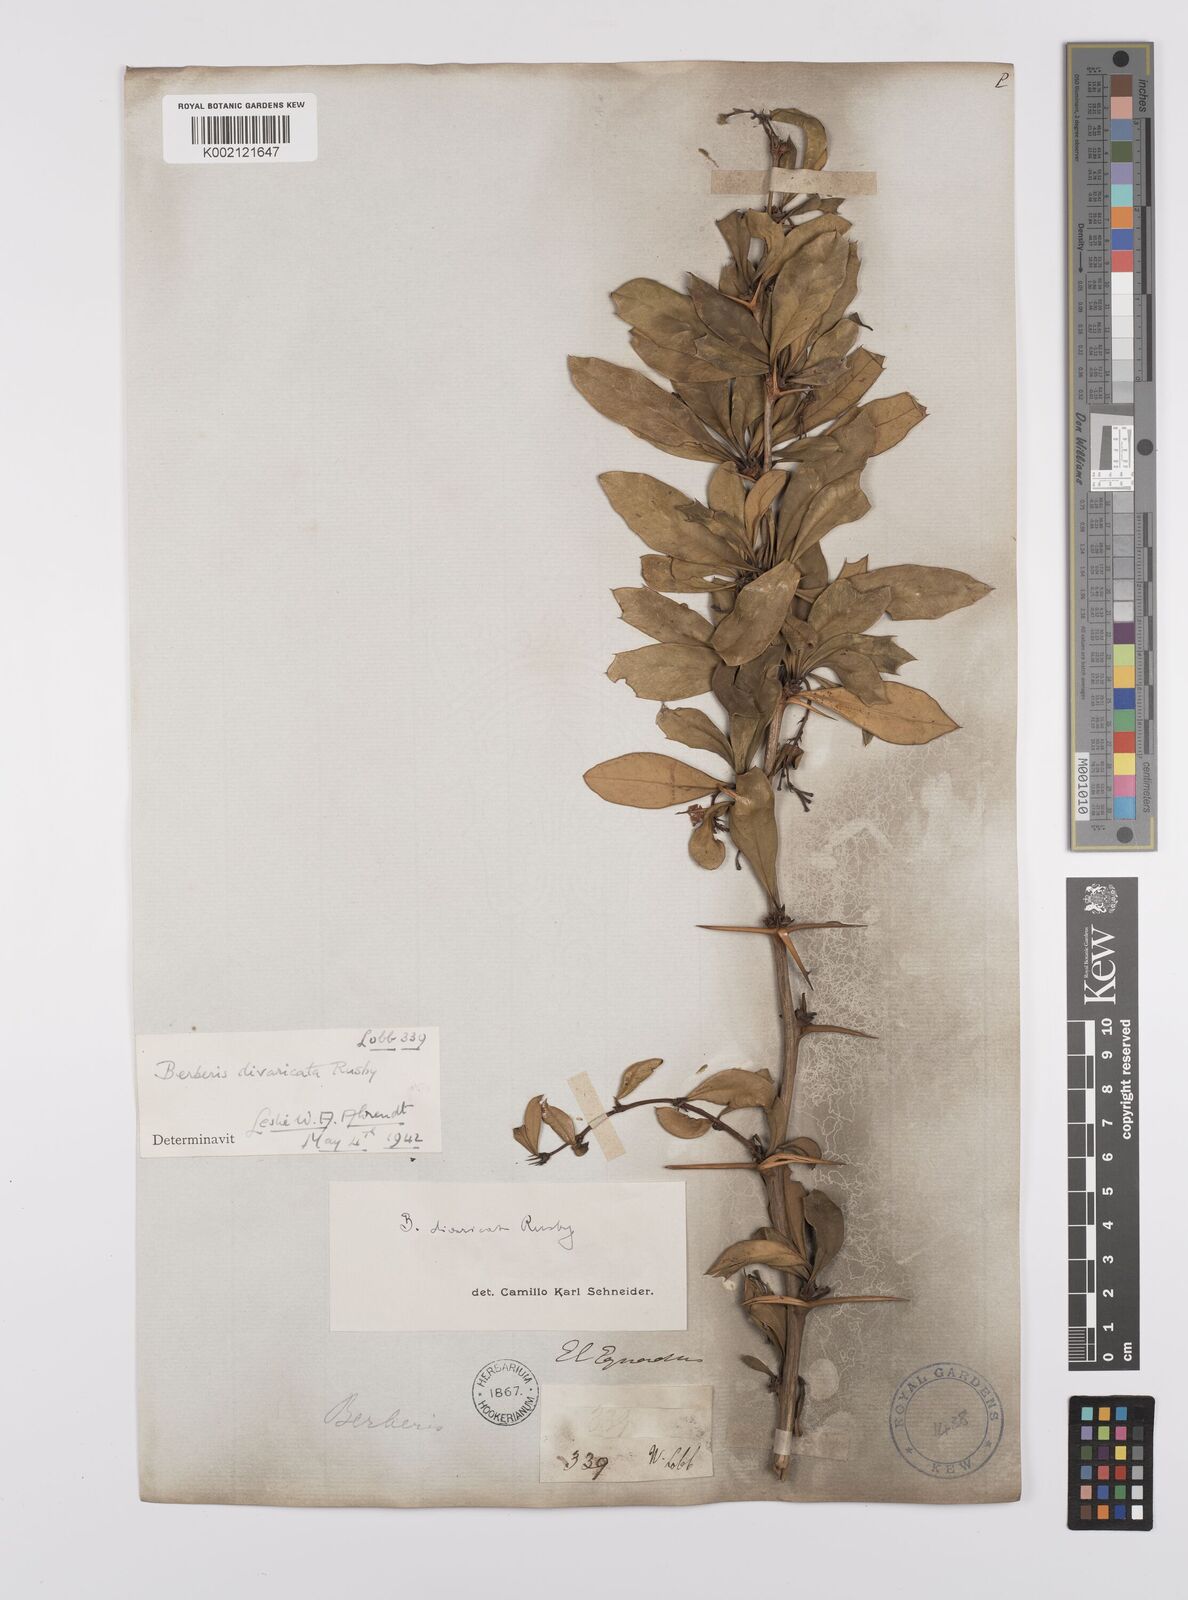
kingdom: Plantae
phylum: Tracheophyta
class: Magnoliopsida
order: Ranunculales
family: Berberidaceae
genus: Berberis
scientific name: Berberis commutata
